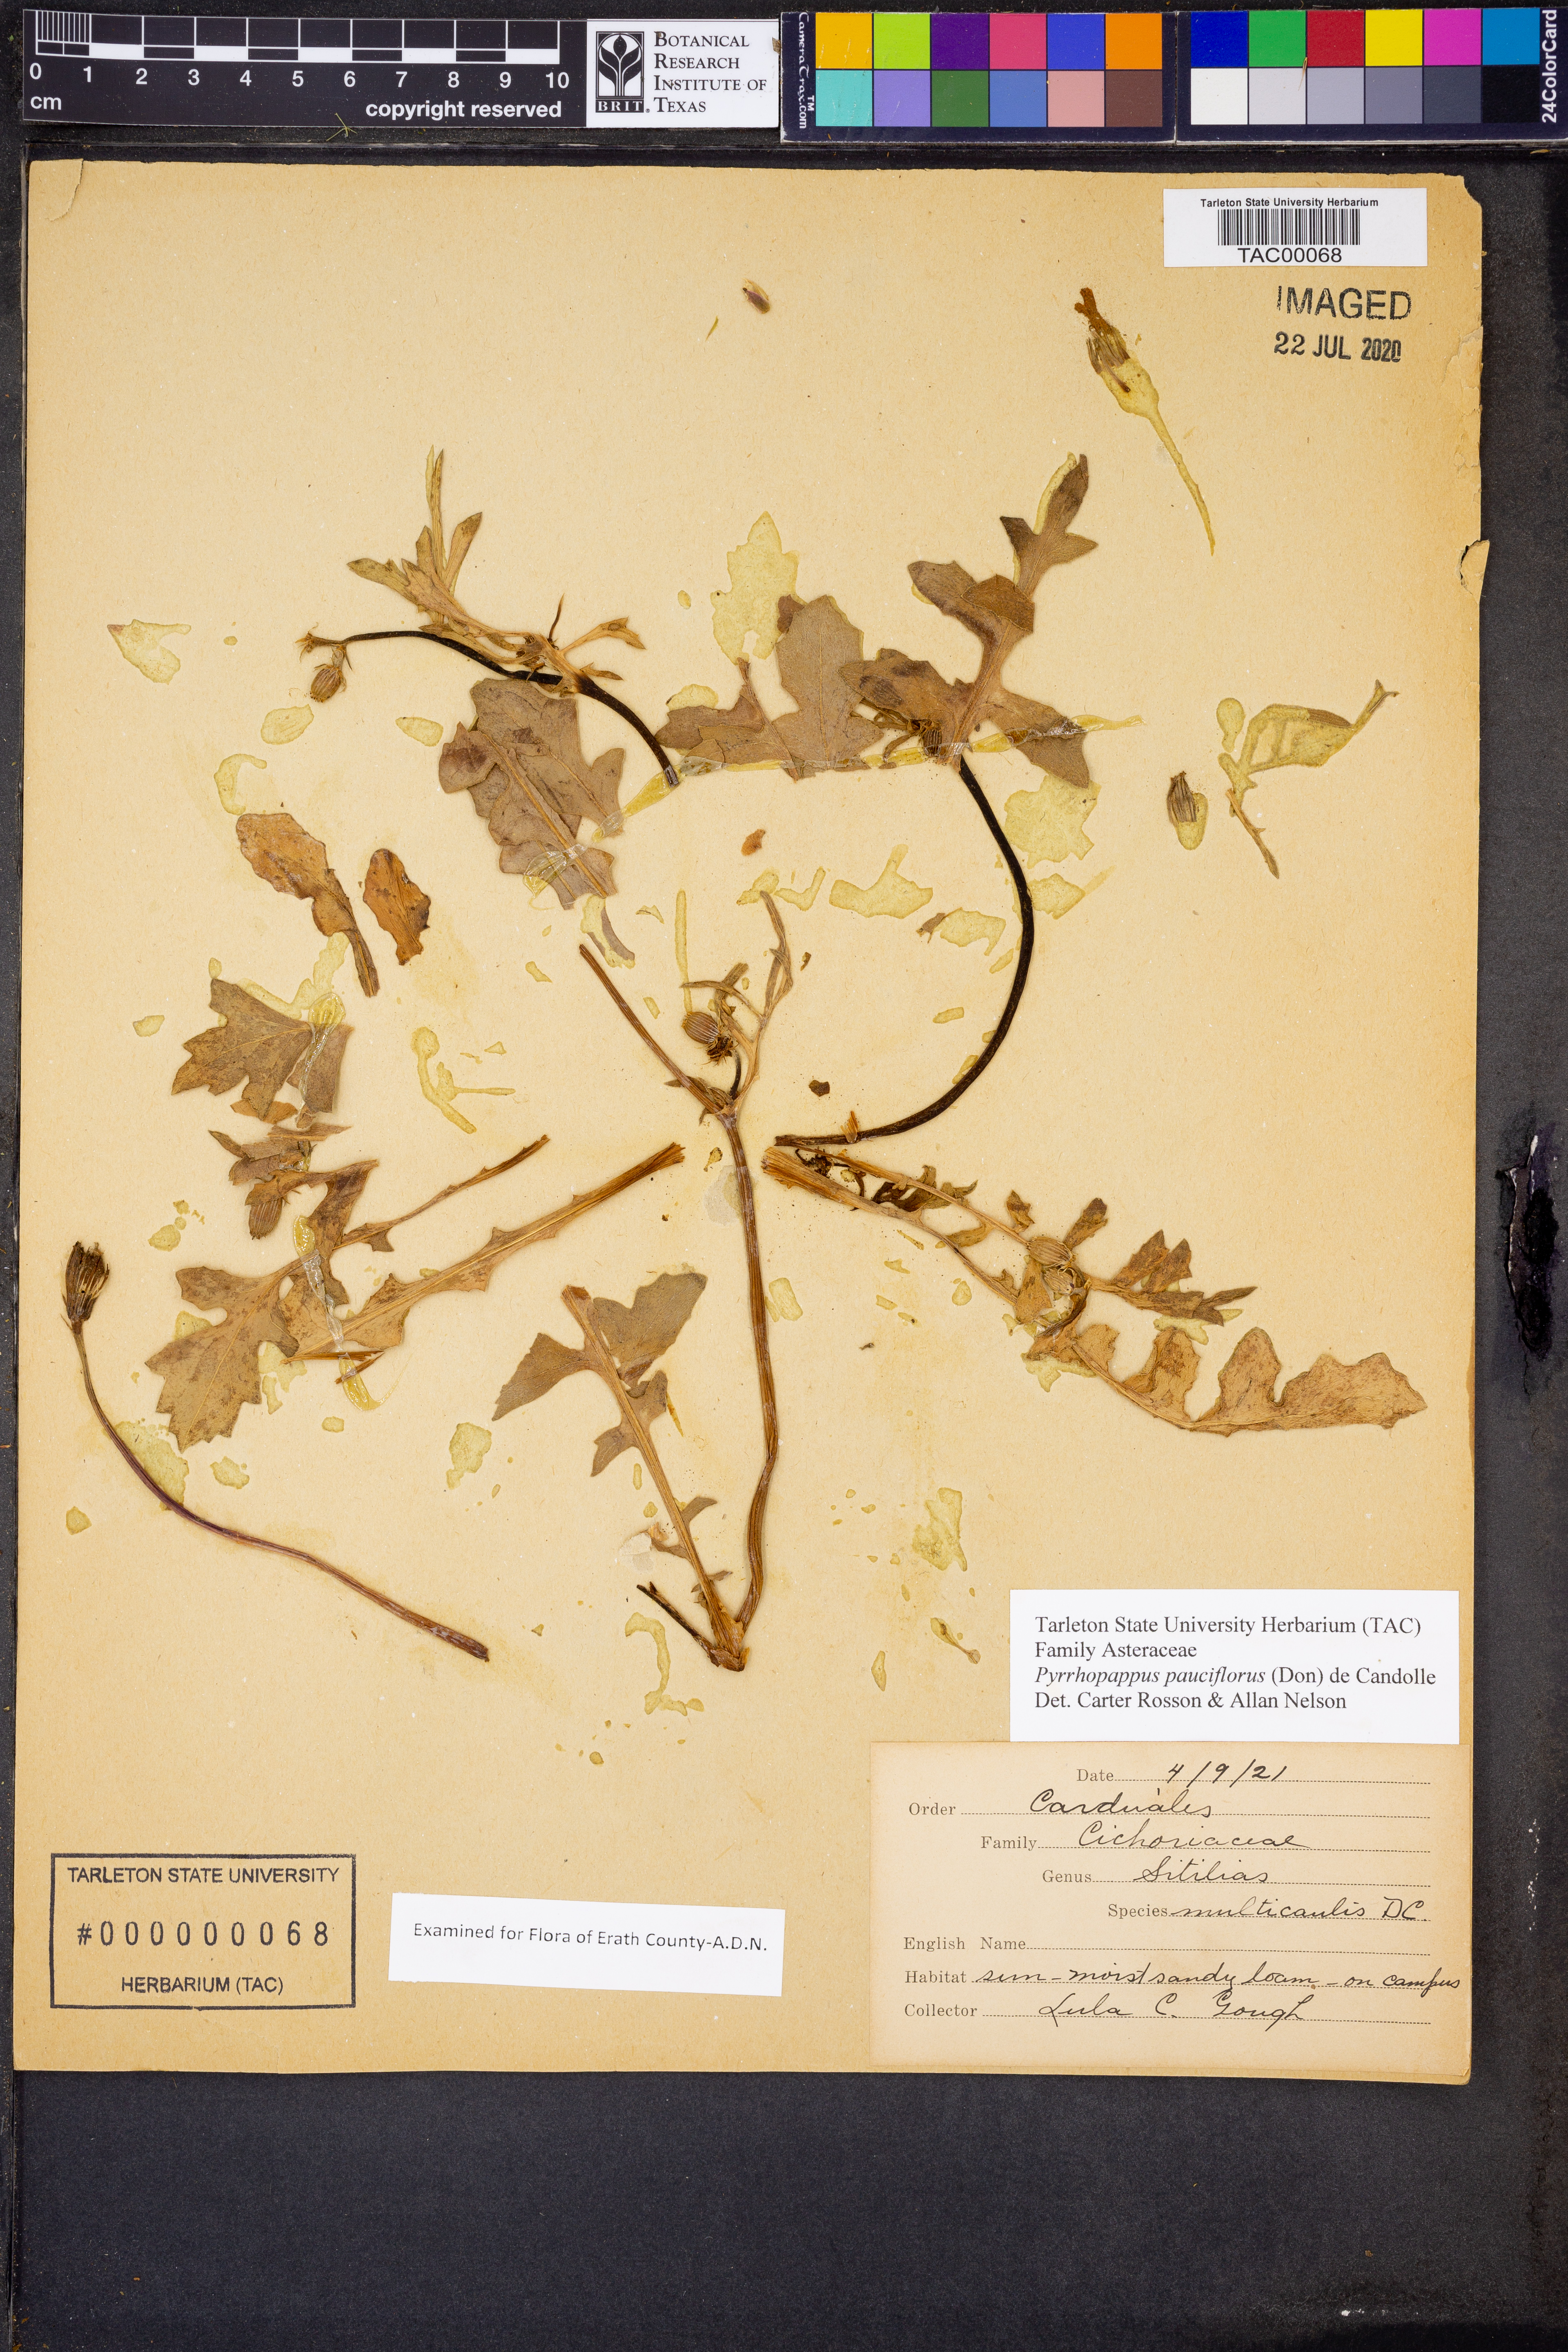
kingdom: Plantae
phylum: Tracheophyta
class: Magnoliopsida
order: Asterales
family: Asteraceae
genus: Pyrrhopappus
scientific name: Pyrrhopappus pauciflorus
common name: Texas false dandelion
